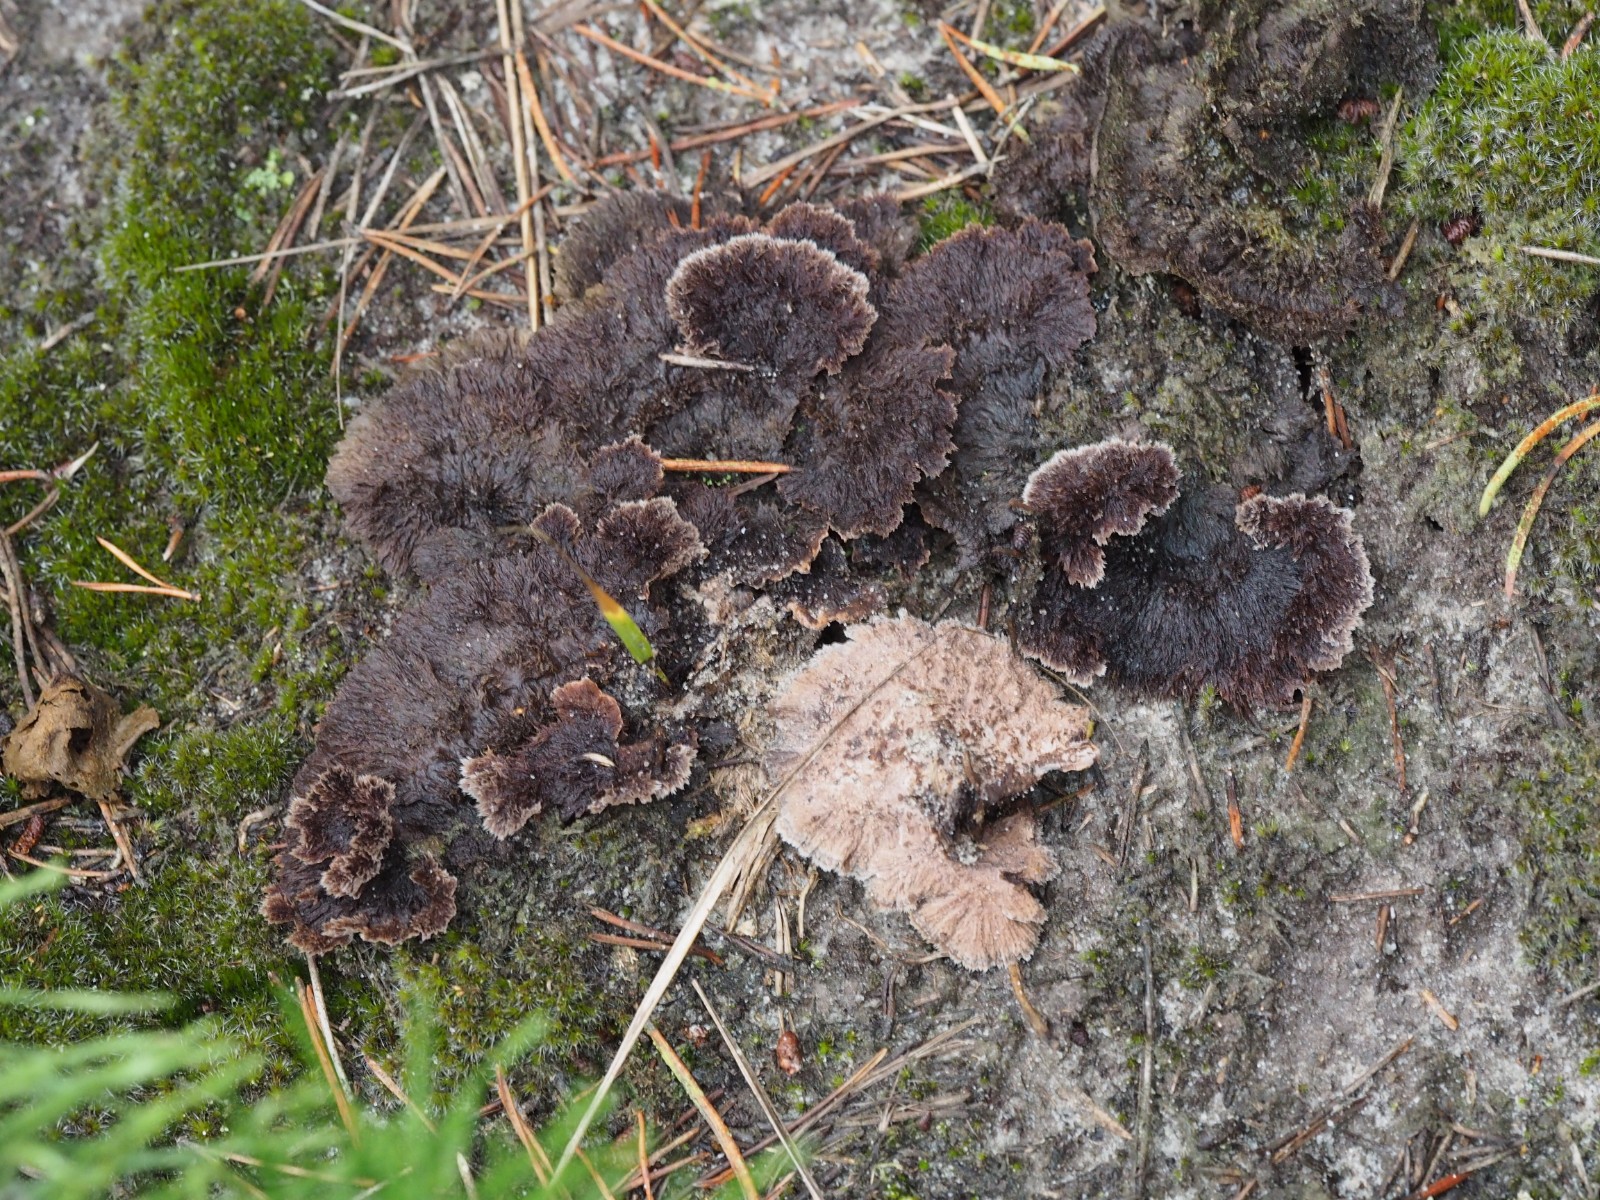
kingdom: Fungi
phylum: Basidiomycota
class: Agaricomycetes
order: Thelephorales
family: Thelephoraceae
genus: Thelephora
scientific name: Thelephora terrestris
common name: fliget frynsesvamp
